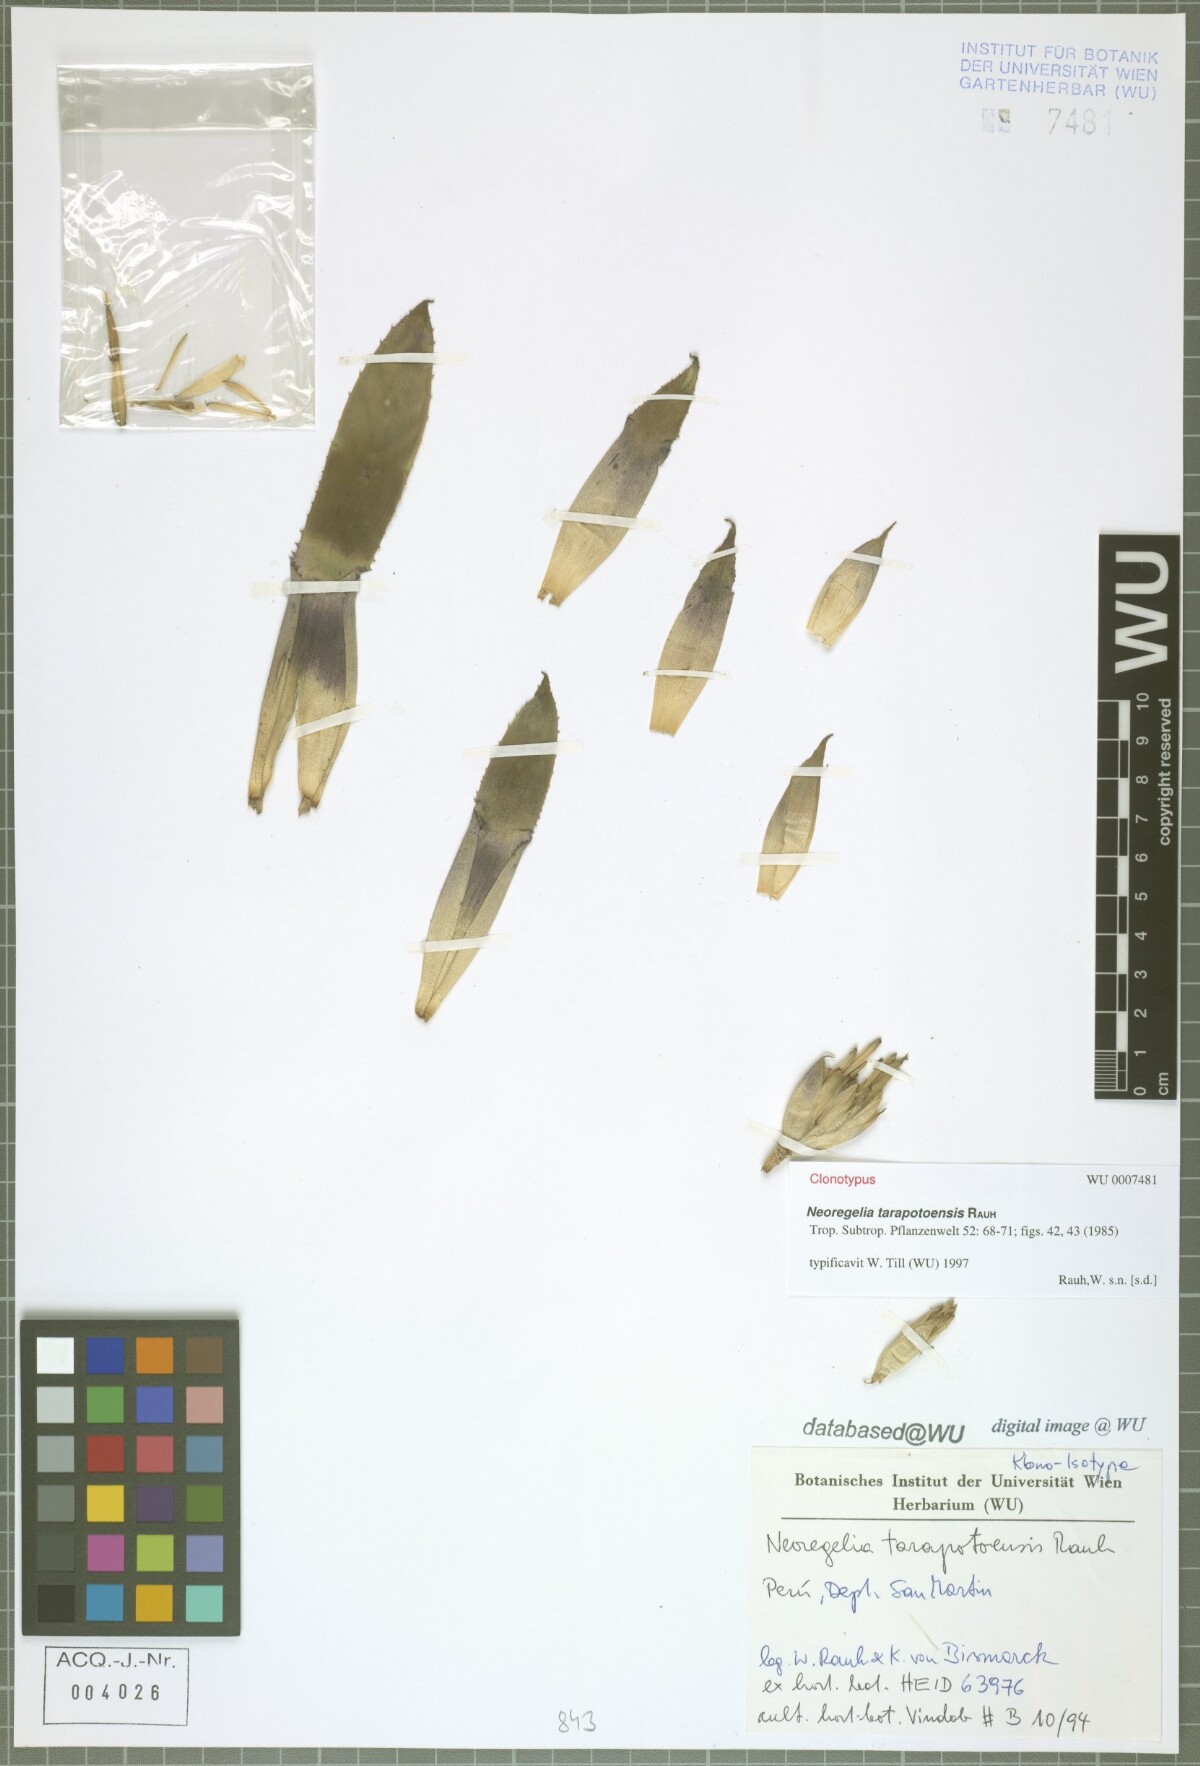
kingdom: Plantae
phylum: Tracheophyta
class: Liliopsida
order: Poales
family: Bromeliaceae
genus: Hylaeaicum
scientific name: Hylaeaicum tarapotoense
